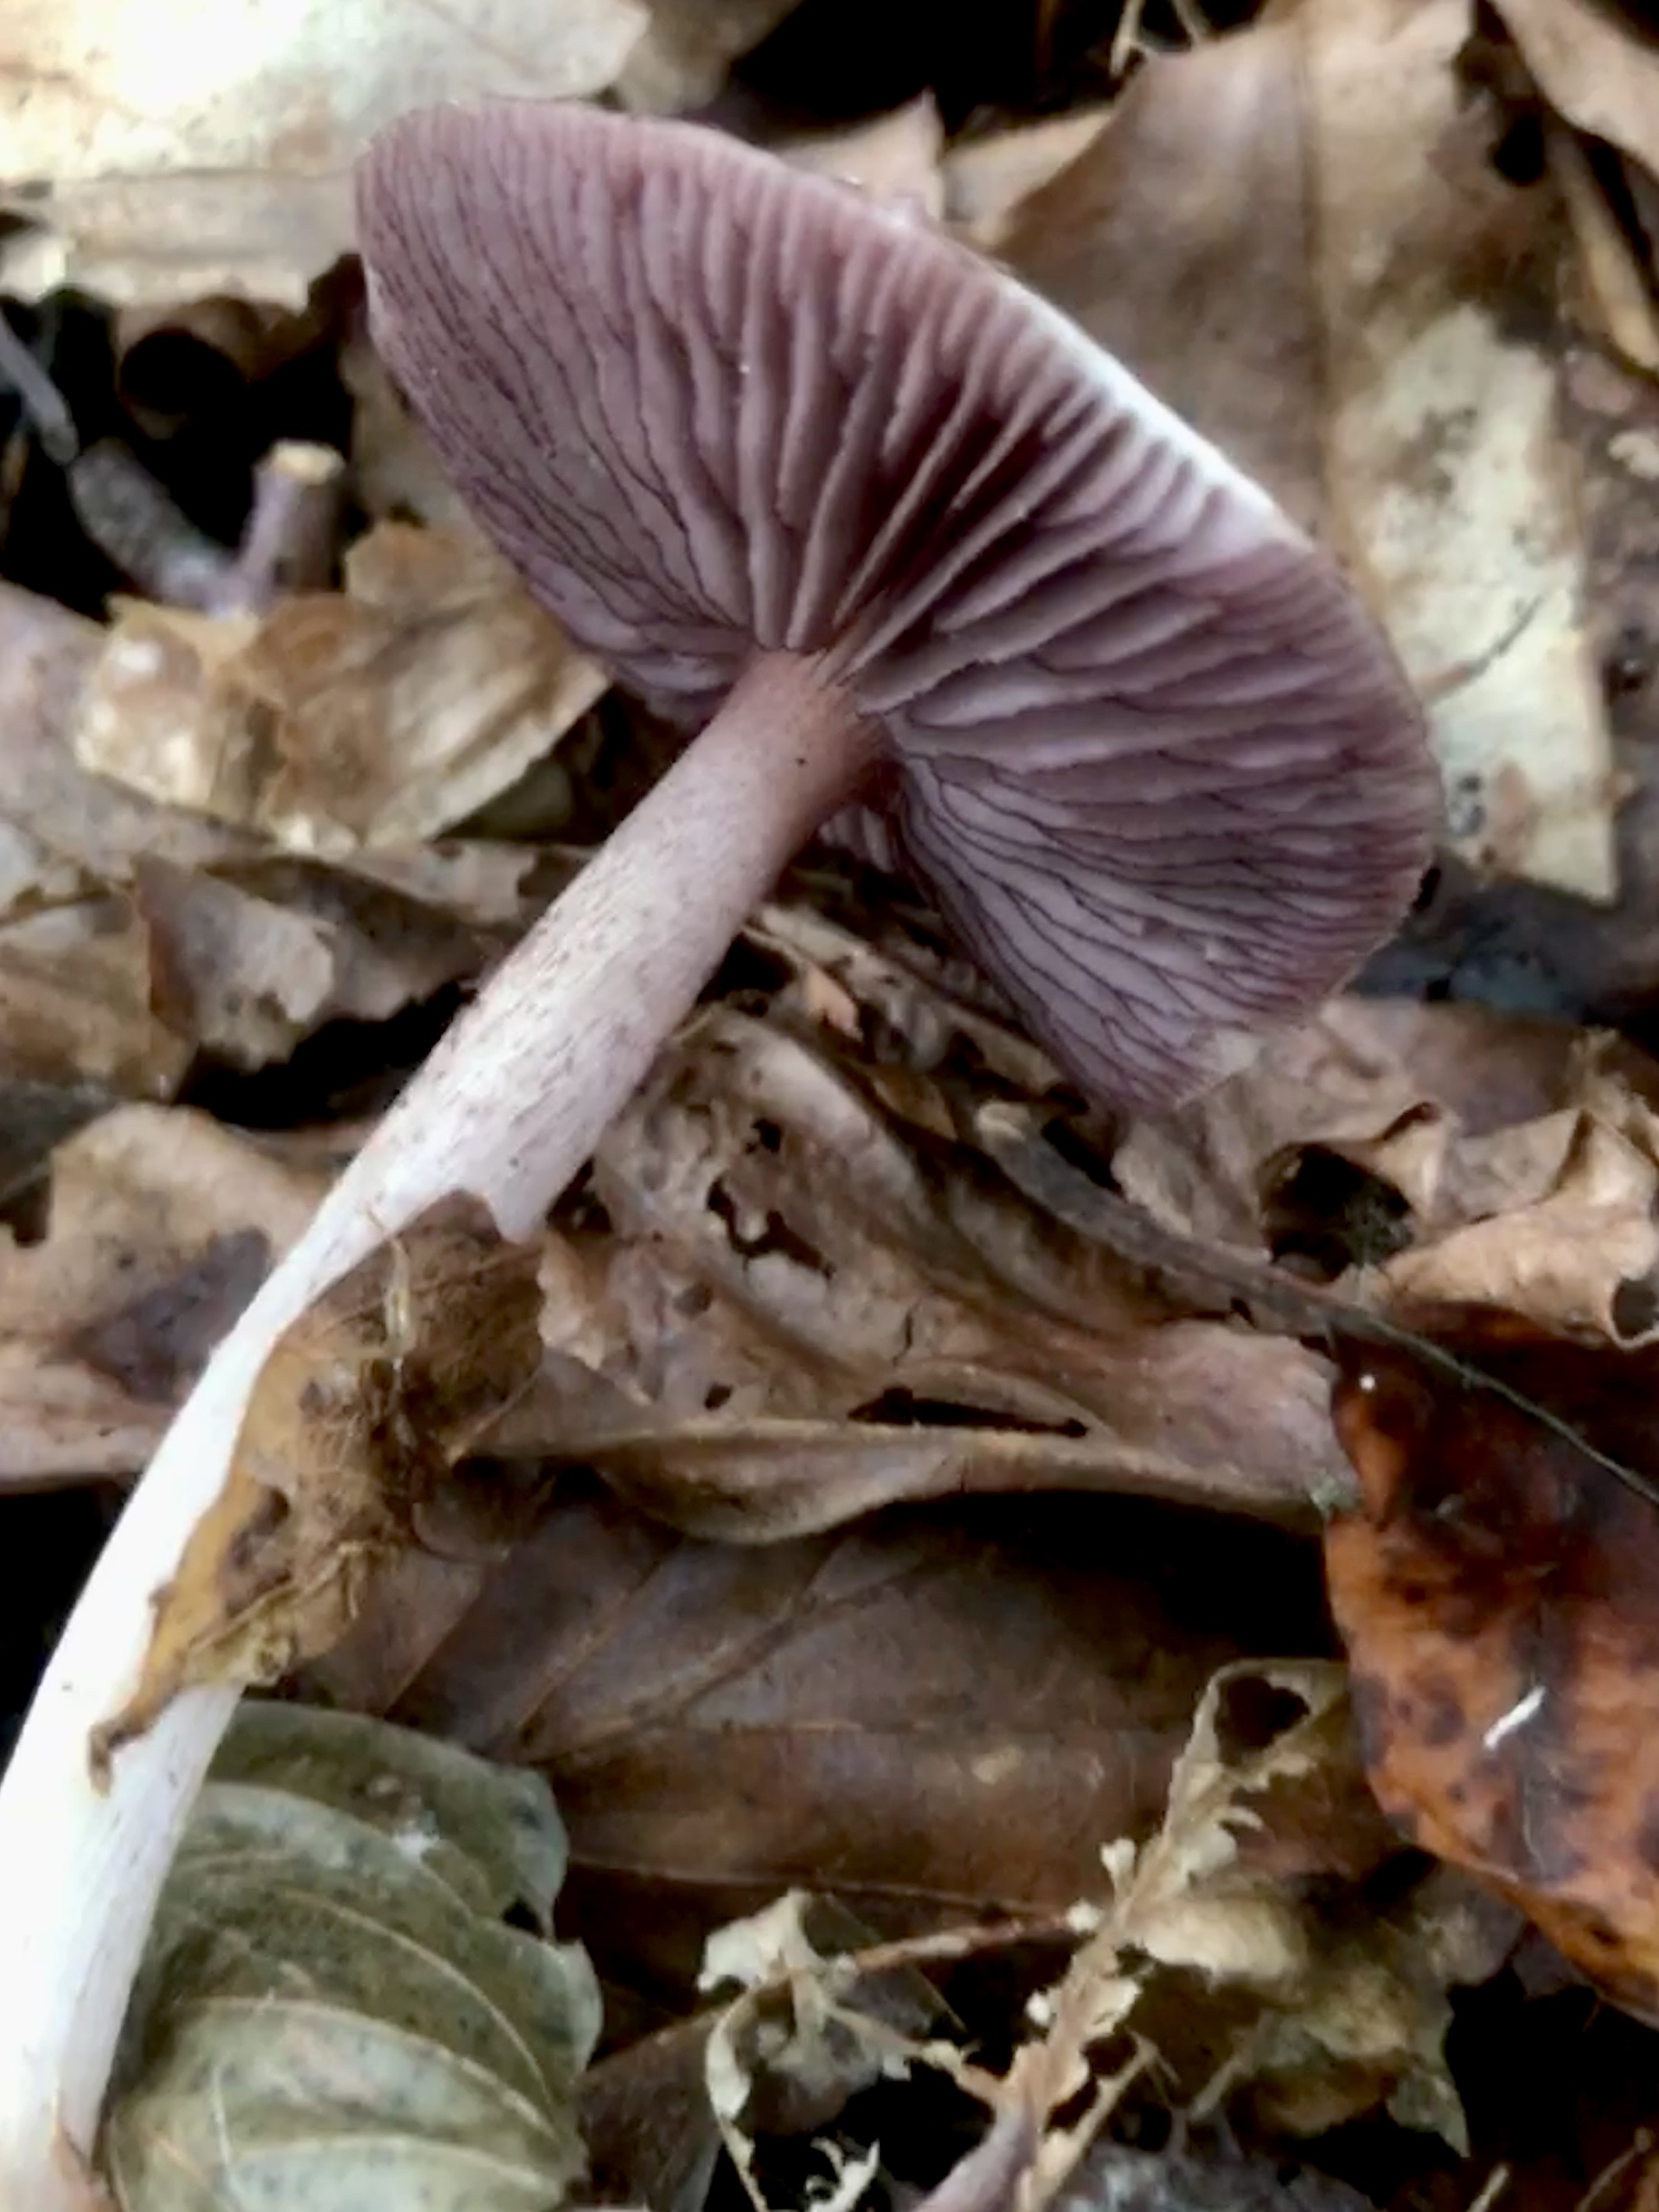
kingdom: Fungi
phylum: Basidiomycota
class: Agaricomycetes
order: Agaricales
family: Mycenaceae
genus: Mycena
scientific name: Mycena pelianthina
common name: mørkbladet huesvamp
